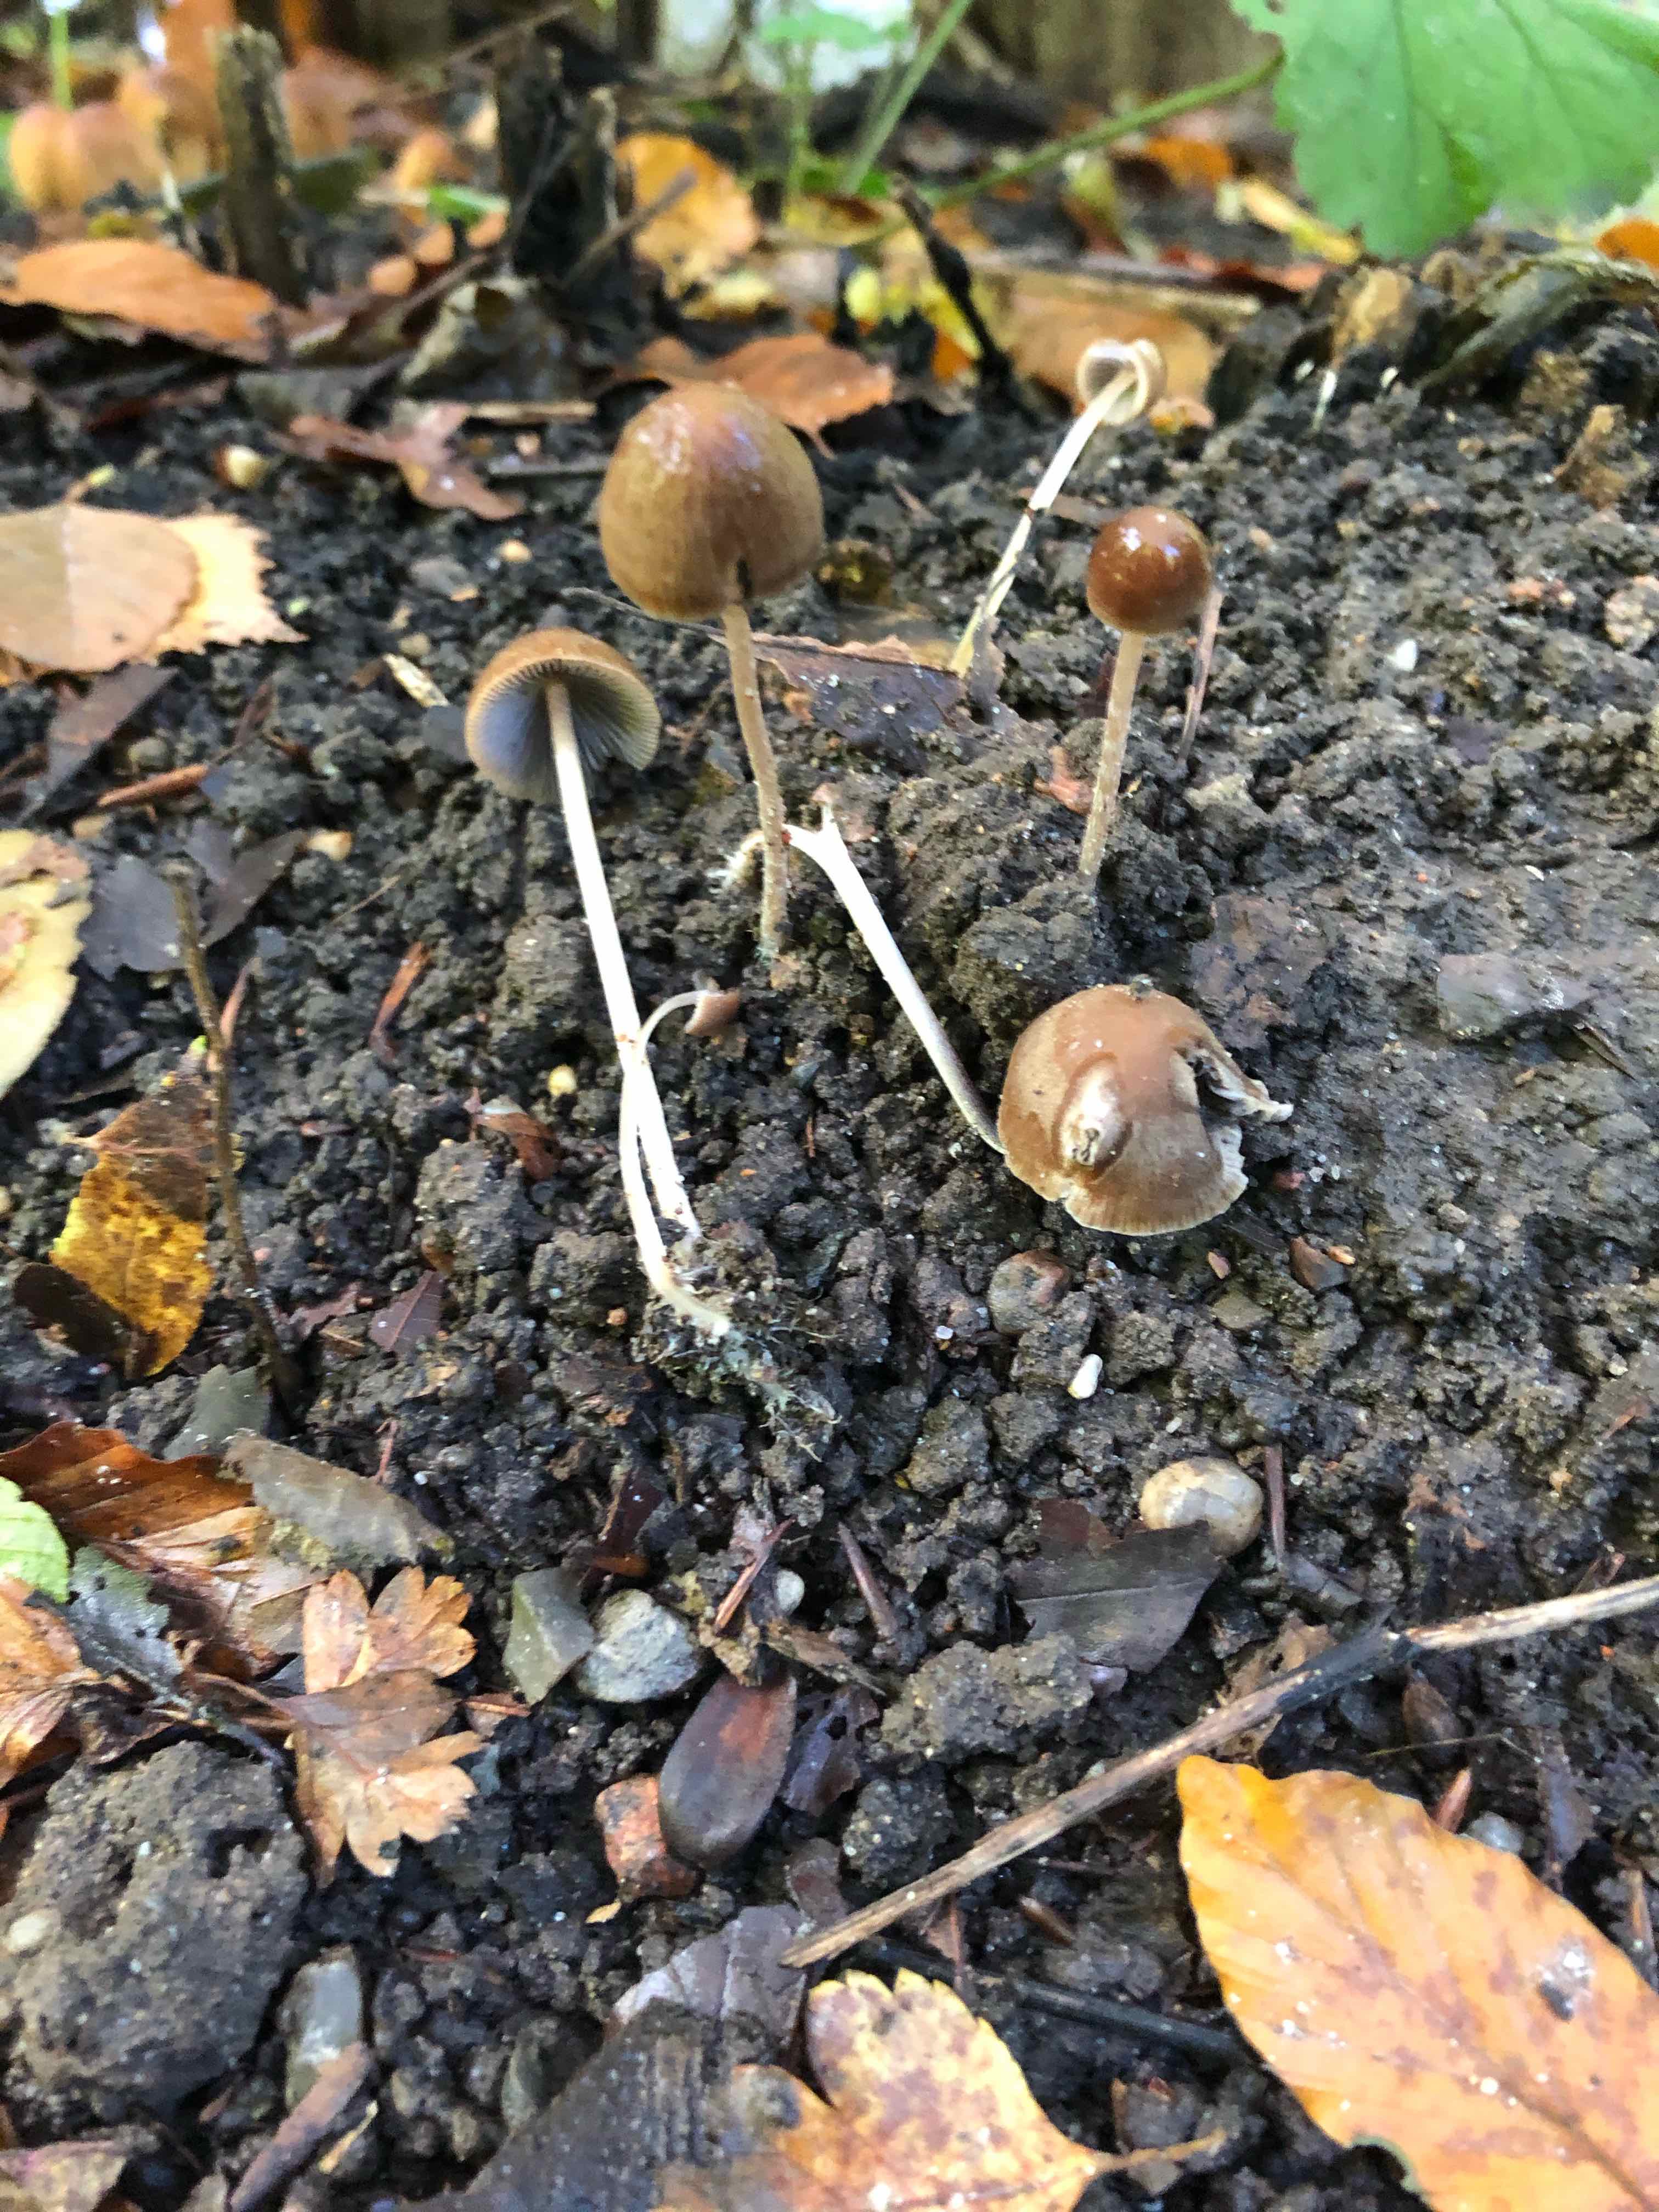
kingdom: Fungi
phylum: Basidiomycota
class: Agaricomycetes
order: Agaricales
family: Psathyrellaceae
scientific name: Psathyrellaceae
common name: mørkhatfamilien
